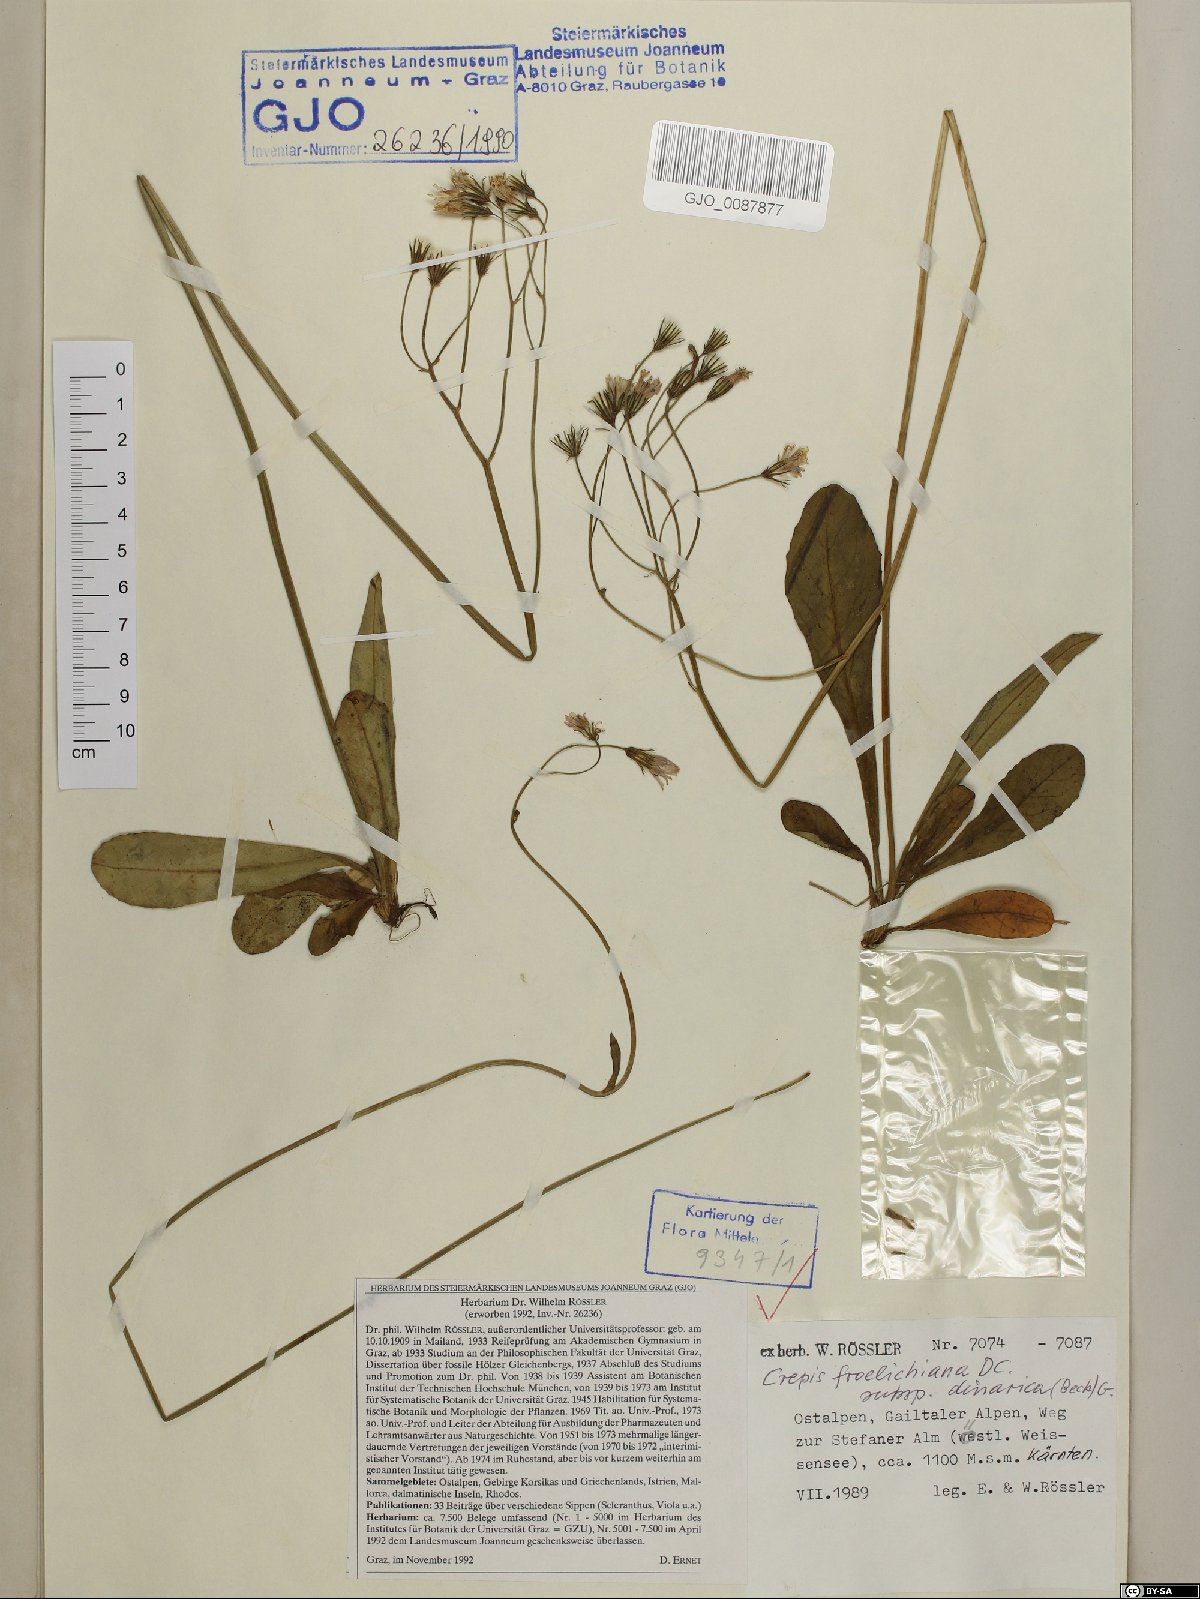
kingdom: Plantae
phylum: Tracheophyta
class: Magnoliopsida
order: Asterales
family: Asteraceae
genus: Crepis
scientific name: Crepis froelichiana
